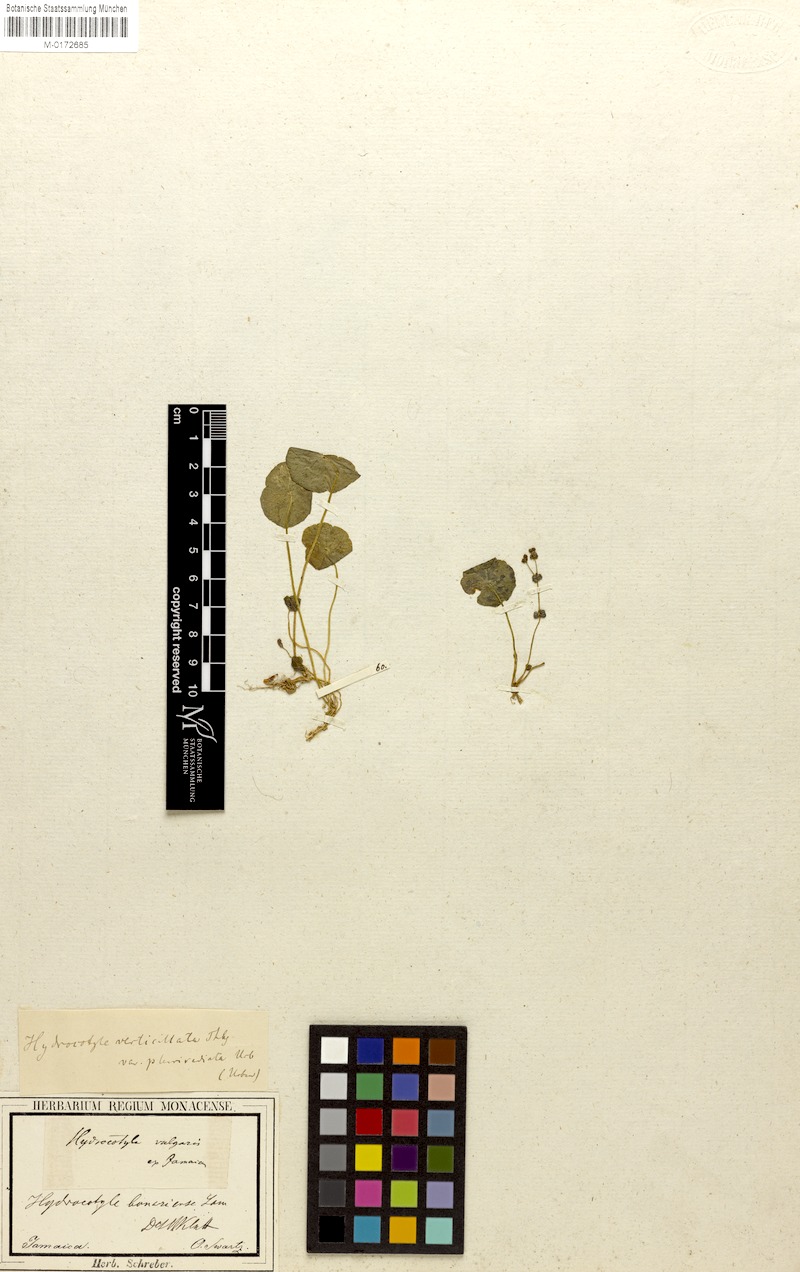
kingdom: Plantae
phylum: Tracheophyta
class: Magnoliopsida
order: Apiales
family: Araliaceae
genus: Hydrocotyle
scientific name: Hydrocotyle umbellata
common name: Water pennywort
